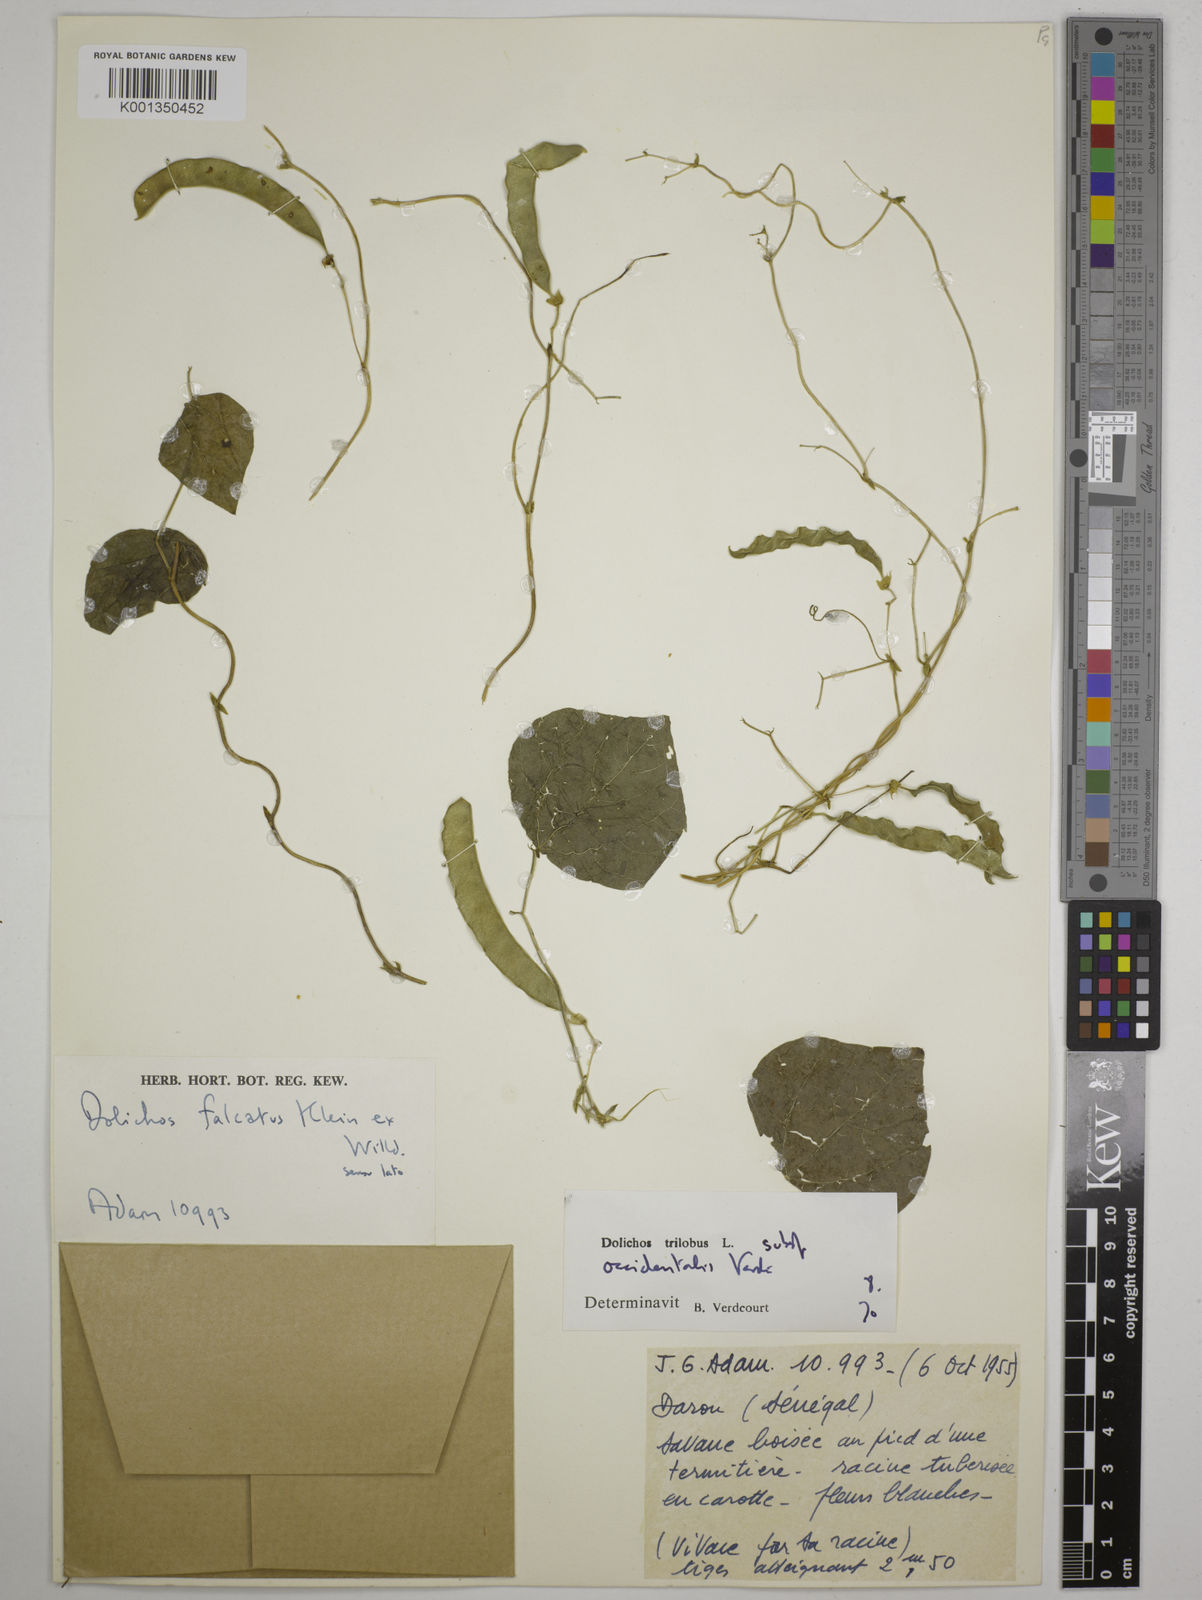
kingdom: Plantae
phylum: Tracheophyta
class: Magnoliopsida
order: Fabales
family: Fabaceae
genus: Dolichos
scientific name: Dolichos
